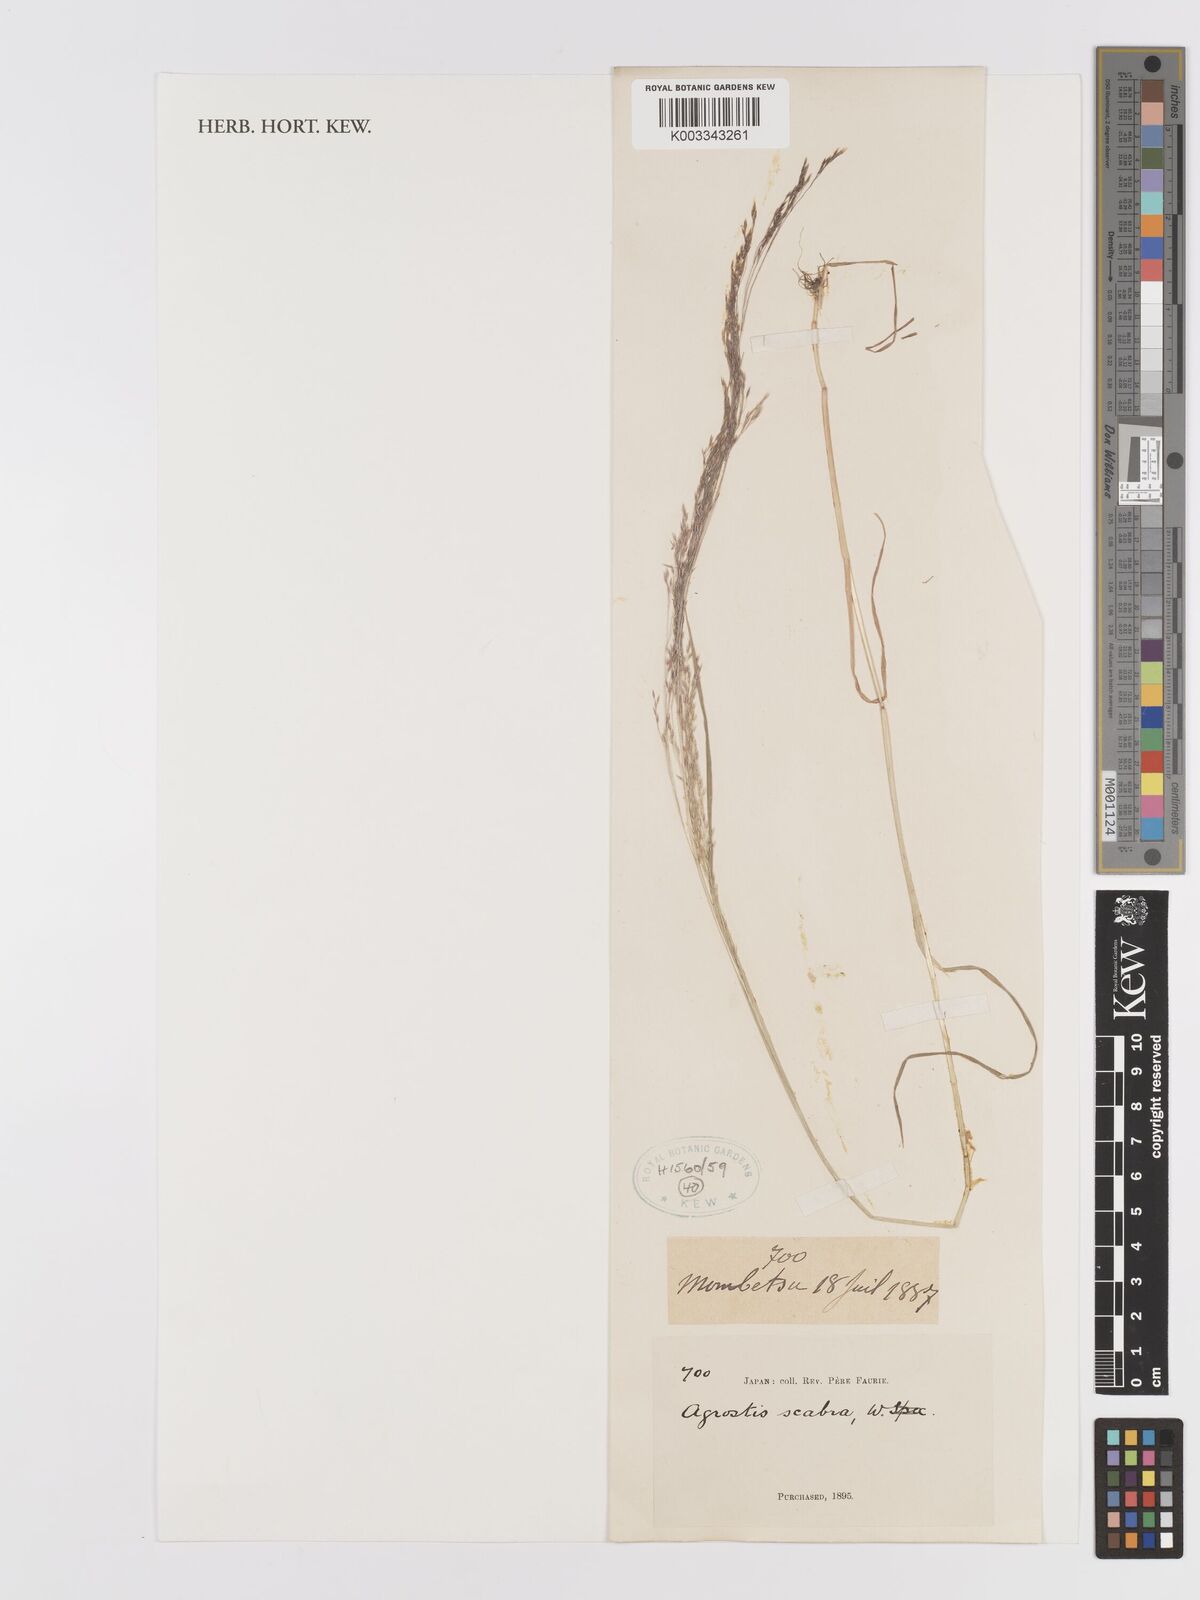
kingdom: Plantae
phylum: Tracheophyta
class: Liliopsida
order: Poales
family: Poaceae
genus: Agrostis
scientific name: Agrostis scabra
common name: Rough bent
